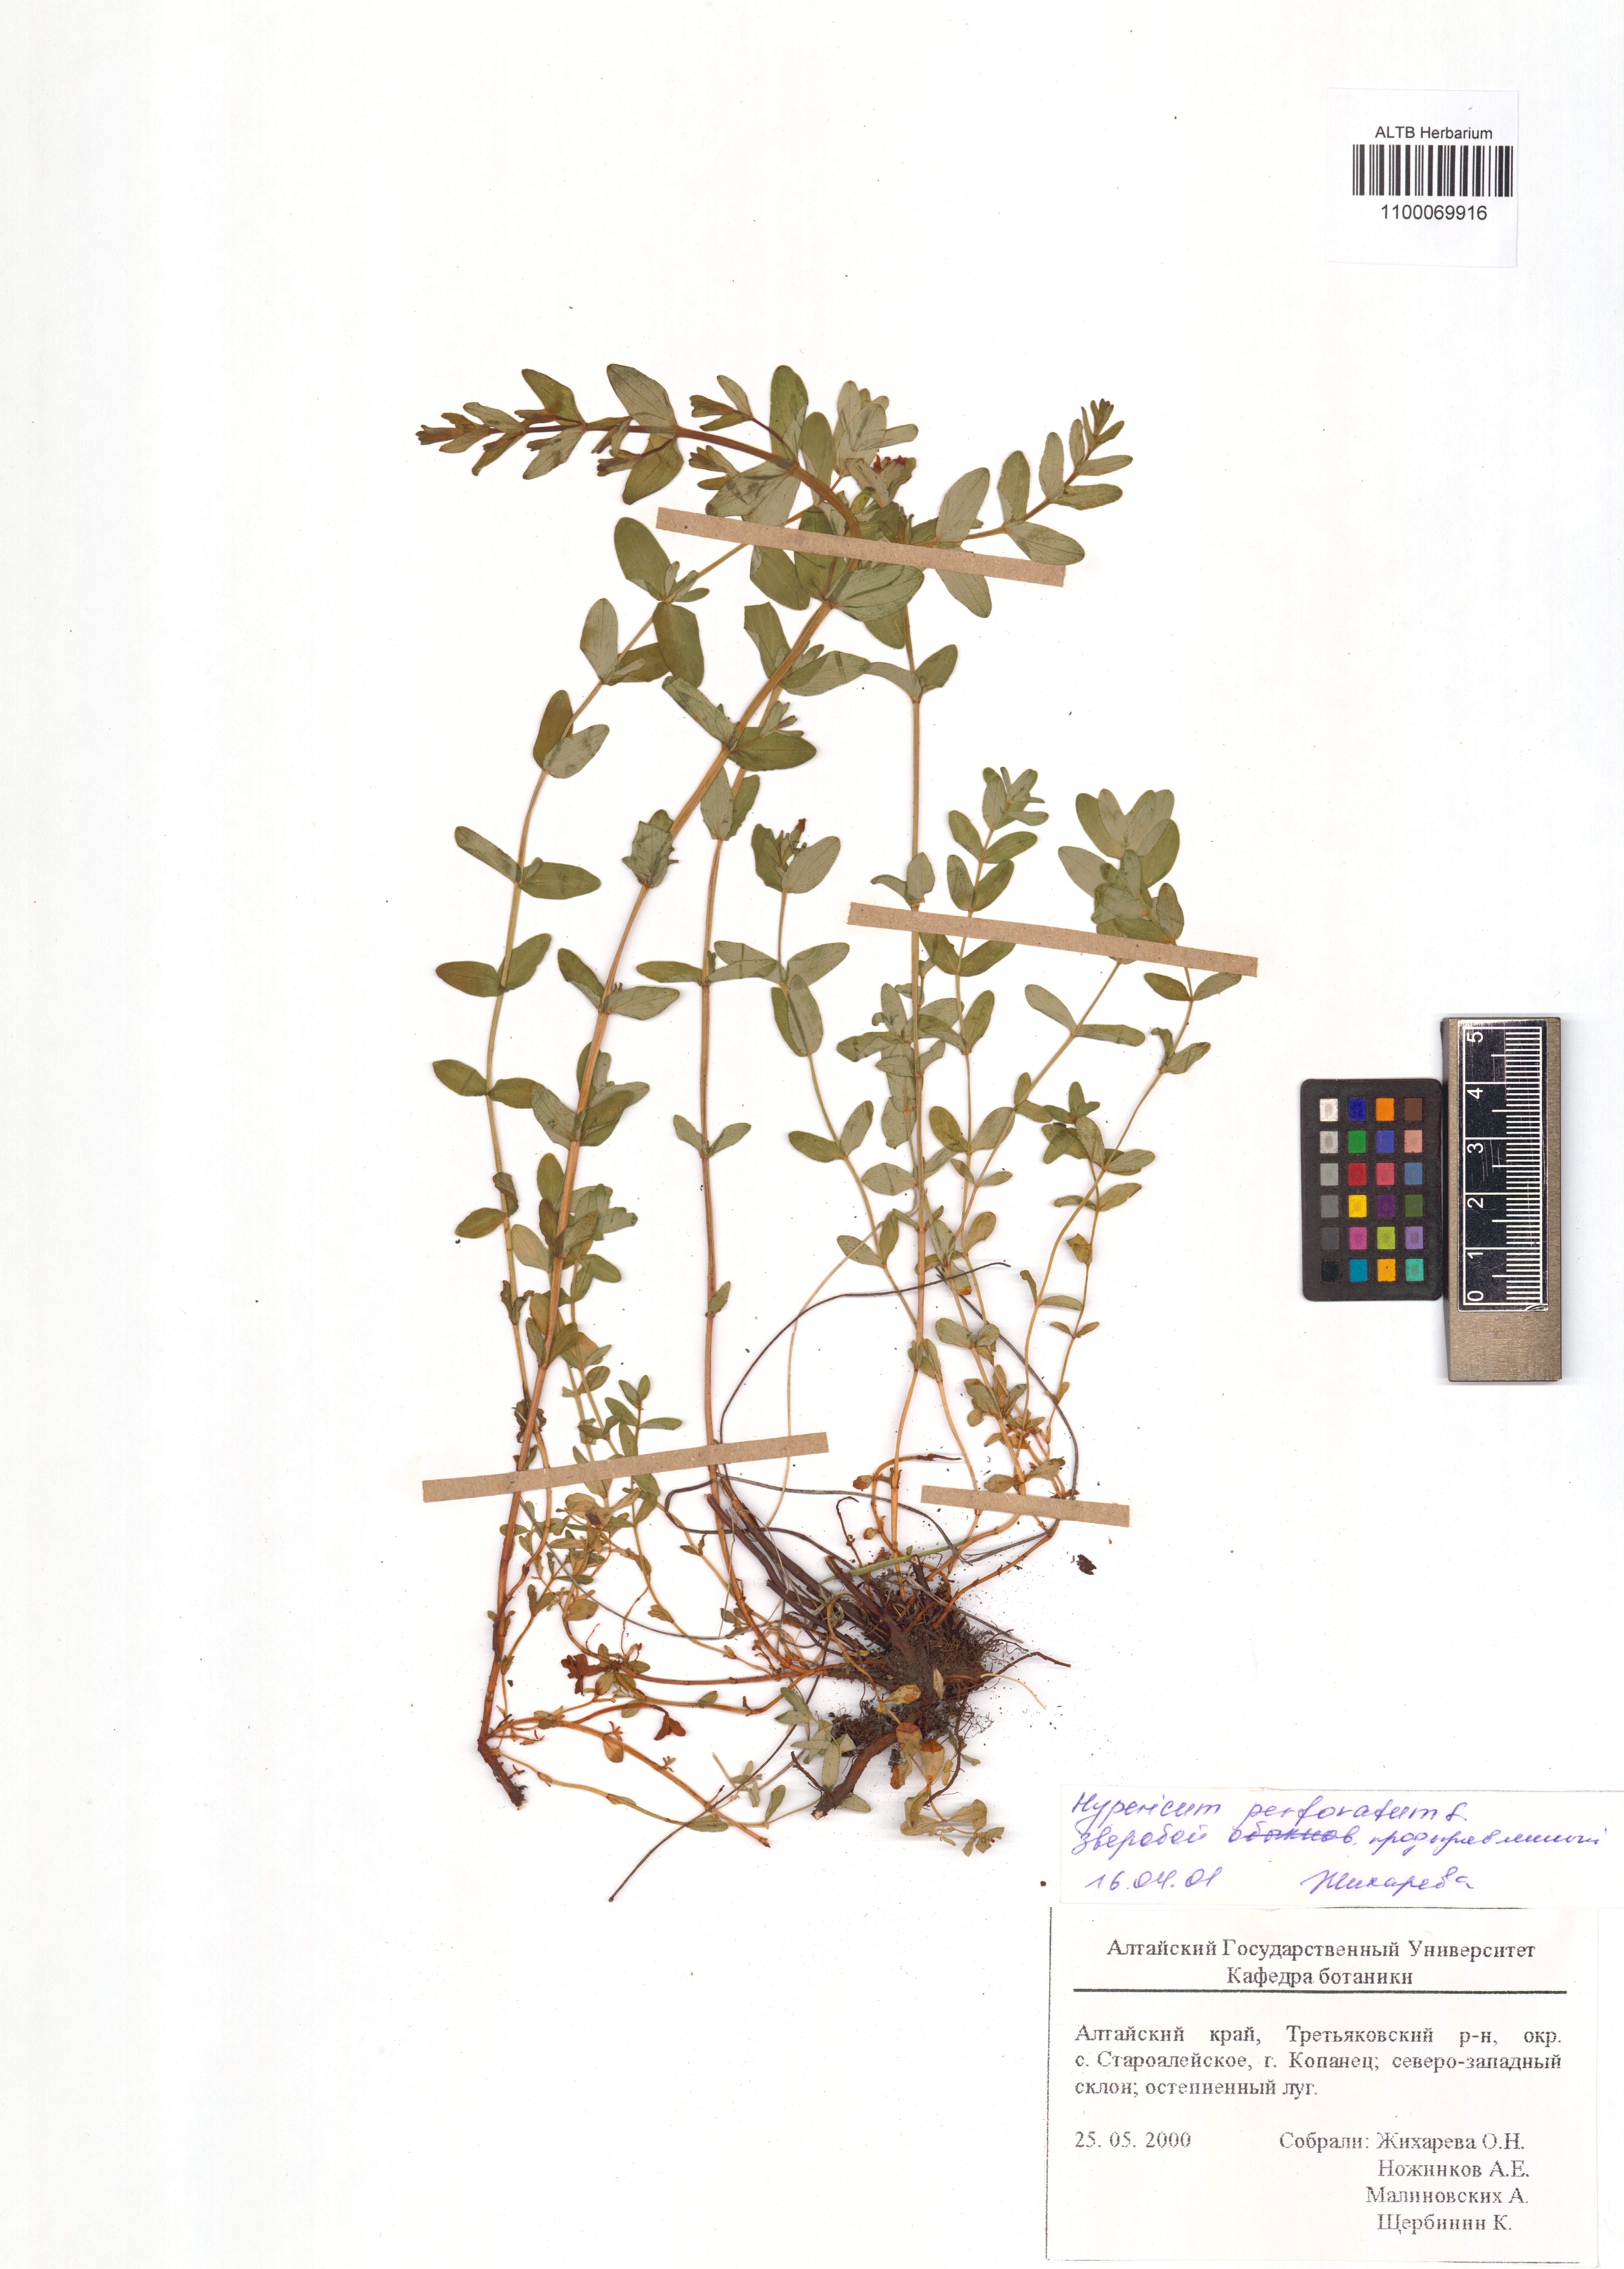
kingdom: Plantae
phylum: Tracheophyta
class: Magnoliopsida
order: Malpighiales
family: Hypericaceae
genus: Hypericum
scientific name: Hypericum perforatum
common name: Common st. johnswort
